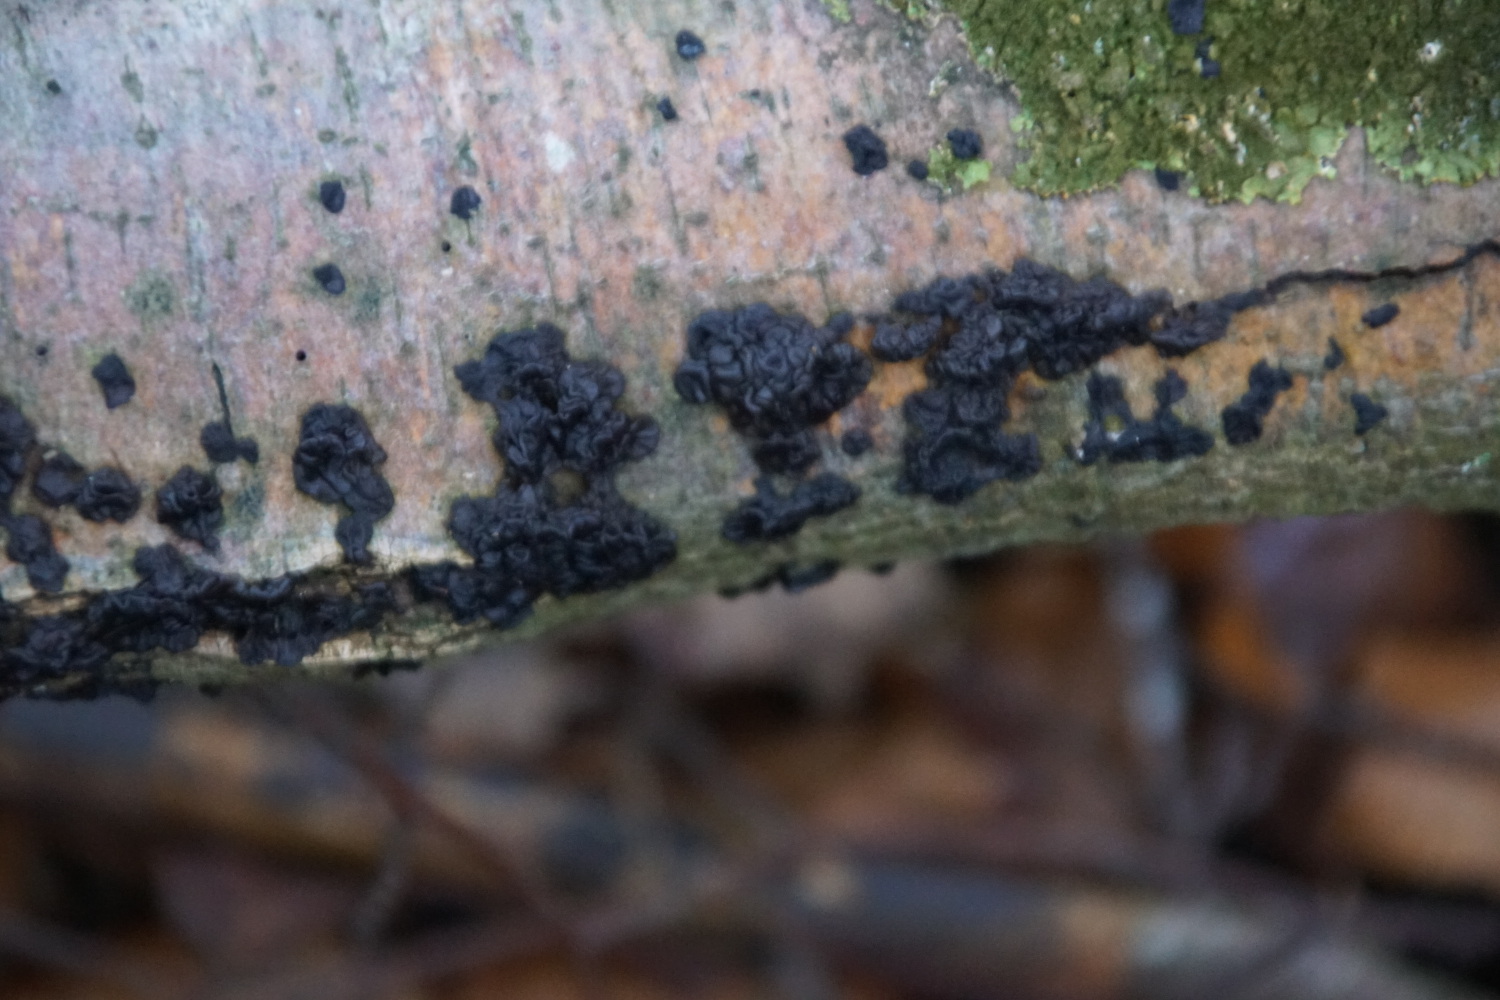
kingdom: Fungi
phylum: Basidiomycota
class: Agaricomycetes
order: Auriculariales
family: Auriculariaceae
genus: Exidia
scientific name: Exidia nigricans
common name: almindelig bævretop
